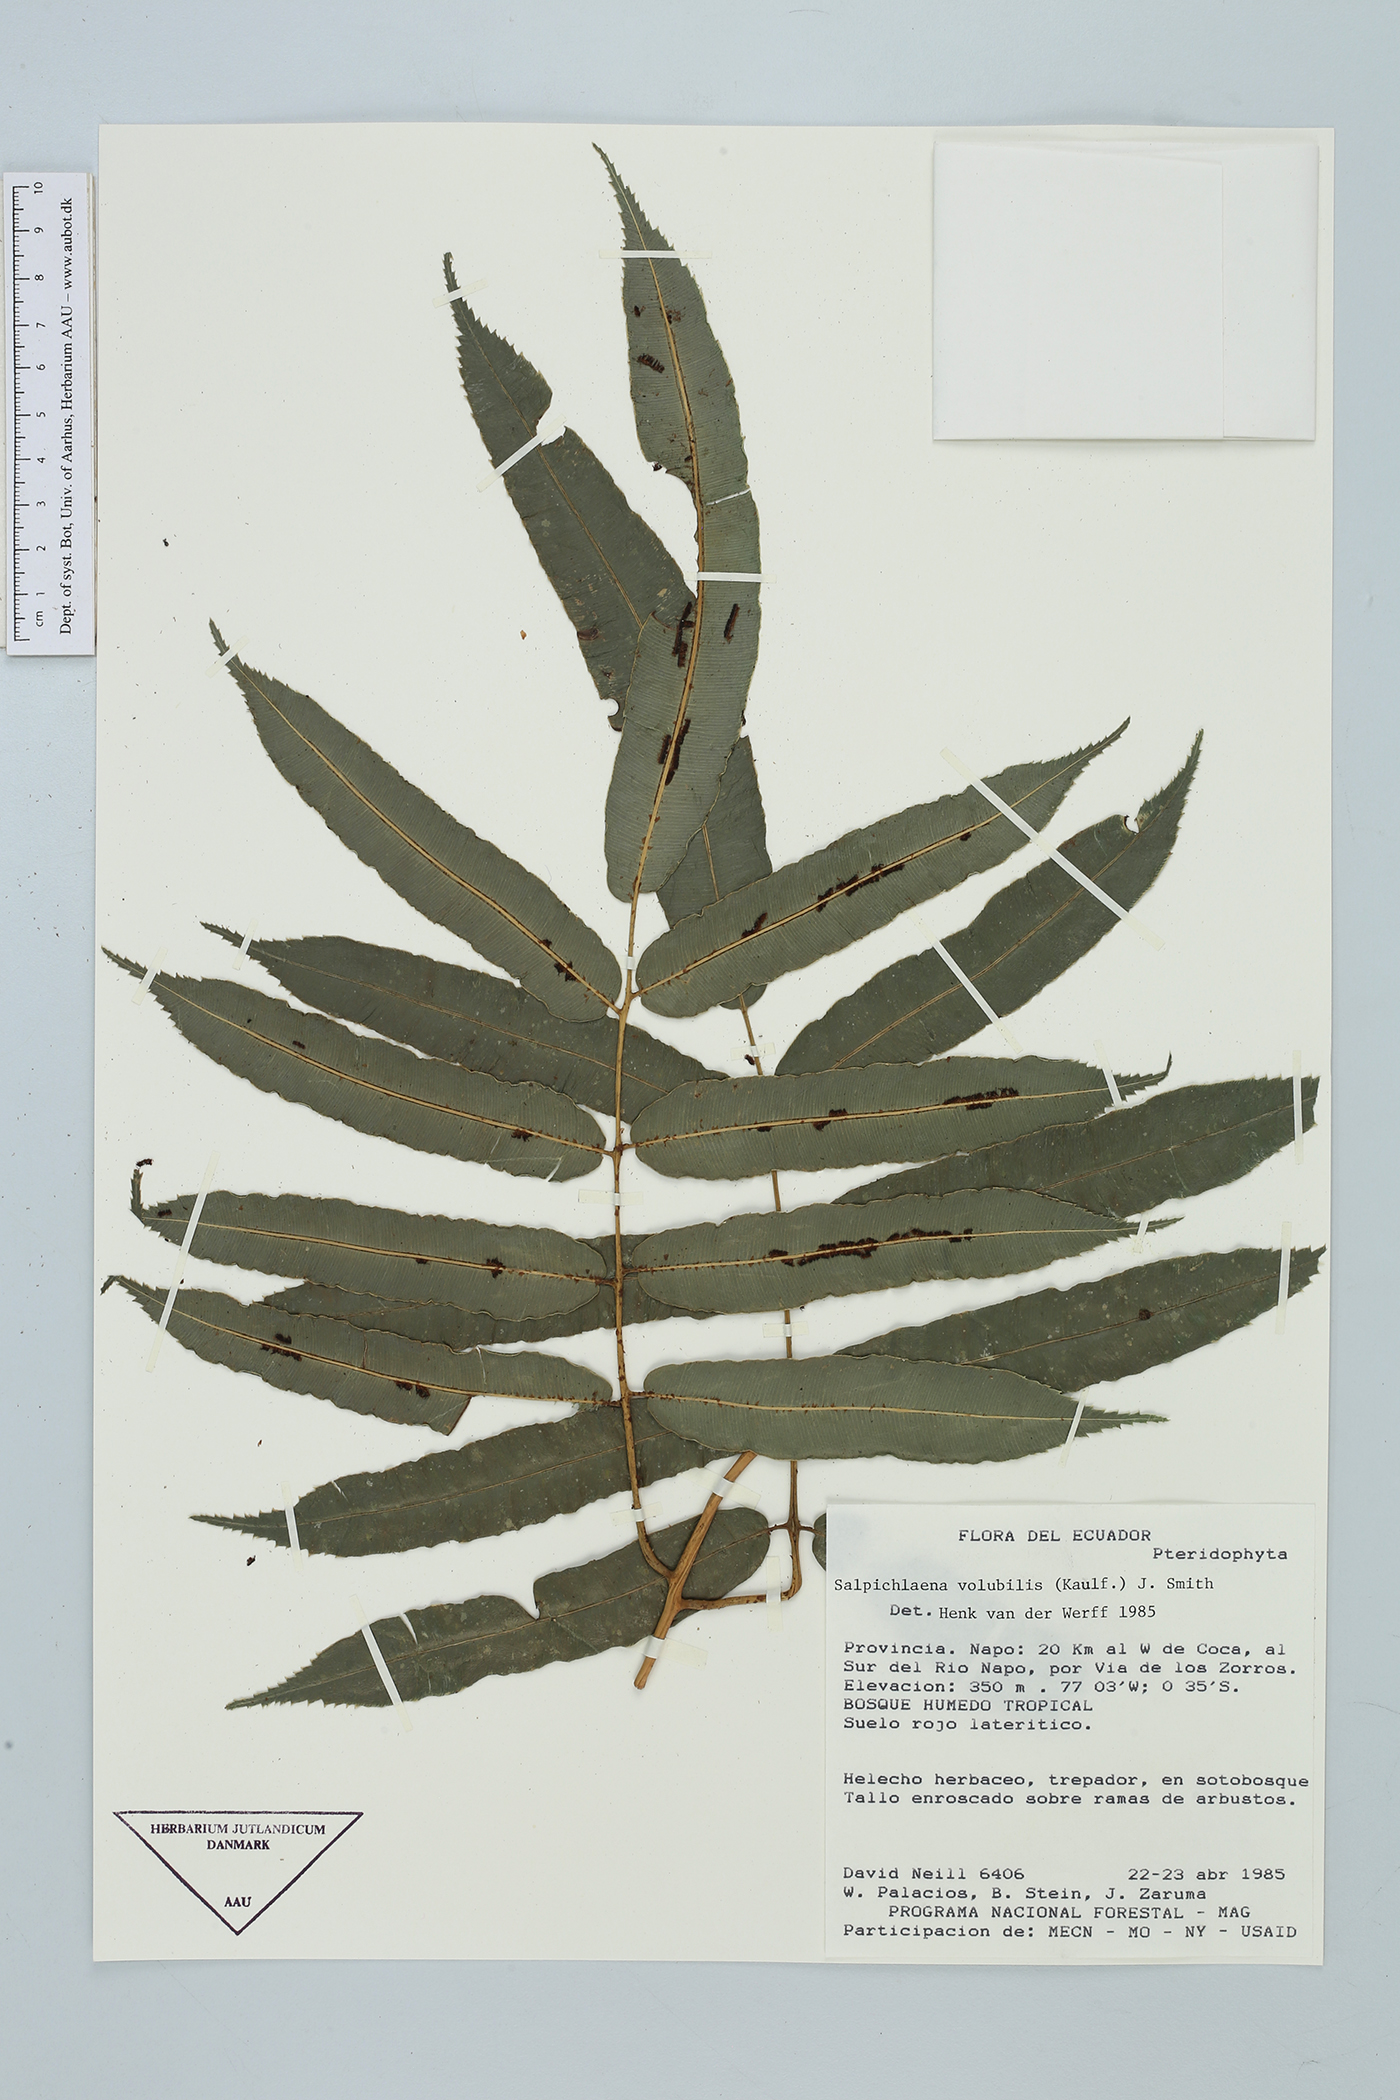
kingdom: Plantae
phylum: Tracheophyta
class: Polypodiopsida
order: Polypodiales
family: Blechnaceae
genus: Salpichlaena
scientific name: Salpichlaena volubilis
